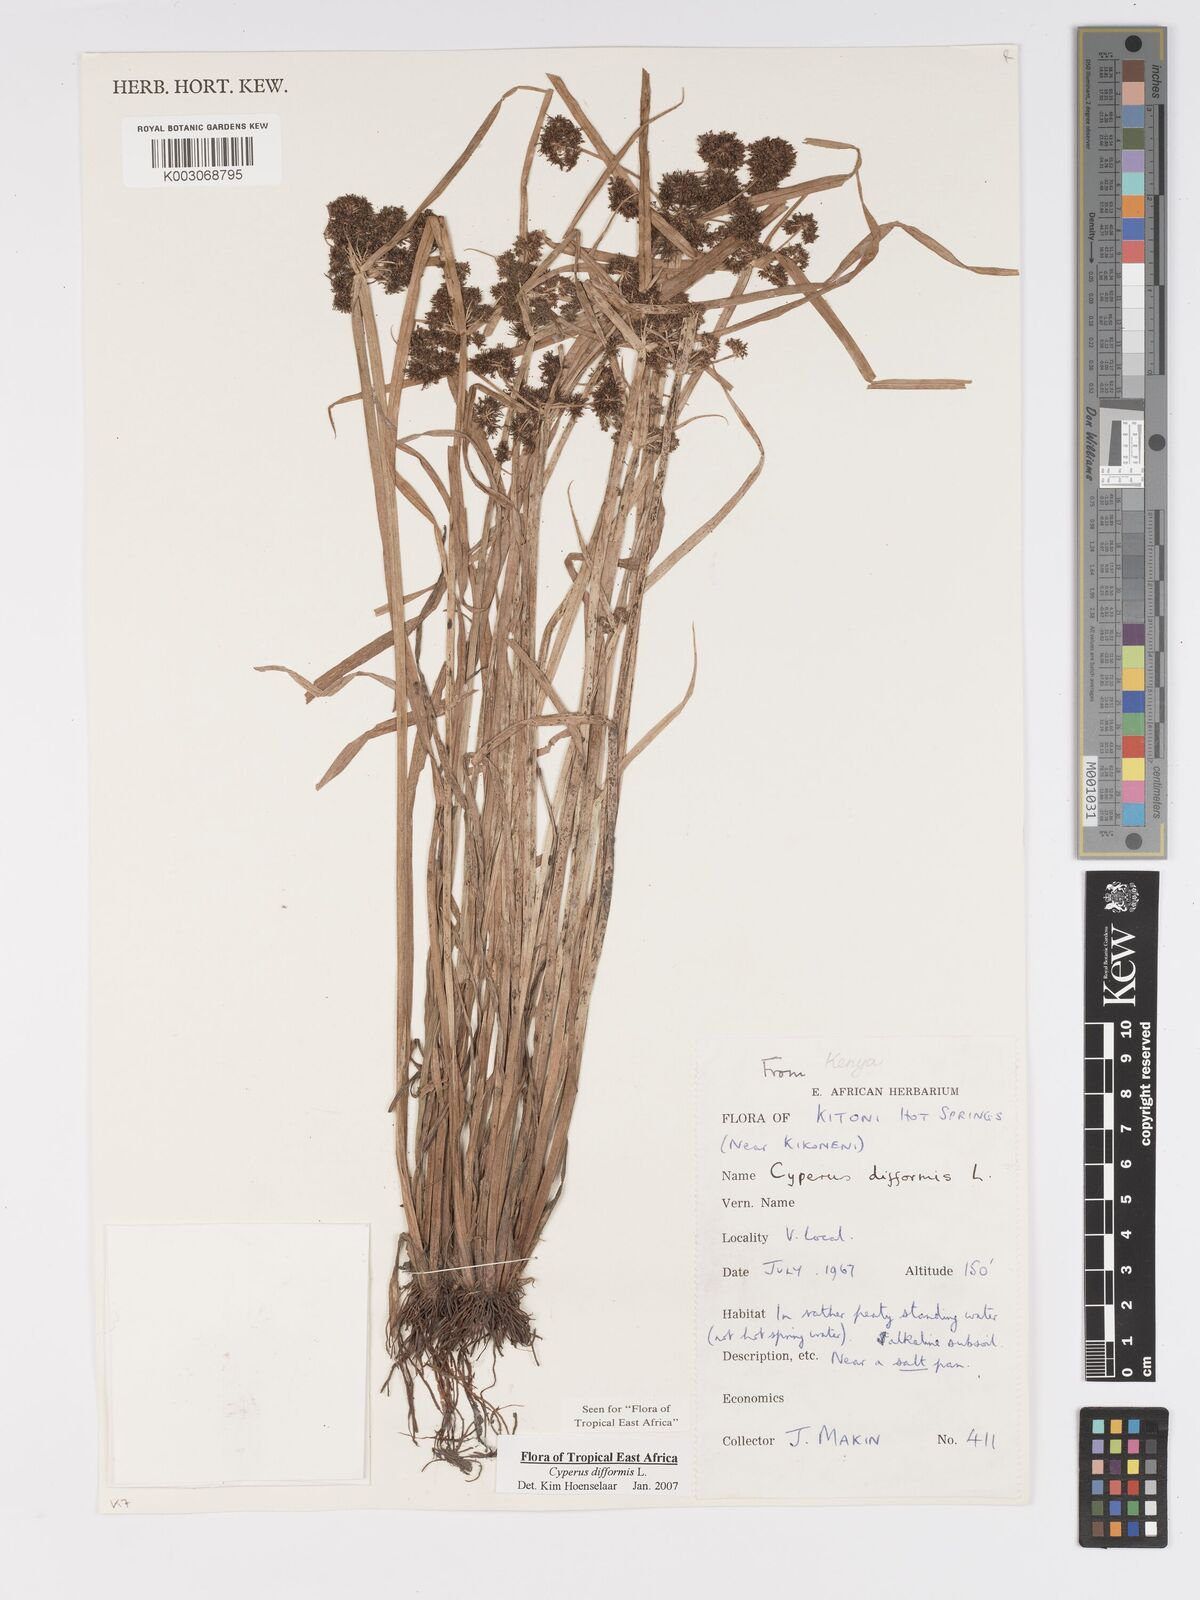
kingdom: Plantae
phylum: Tracheophyta
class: Liliopsida
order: Poales
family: Cyperaceae
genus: Cyperus
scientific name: Cyperus difformis
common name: Variable flatsedge
